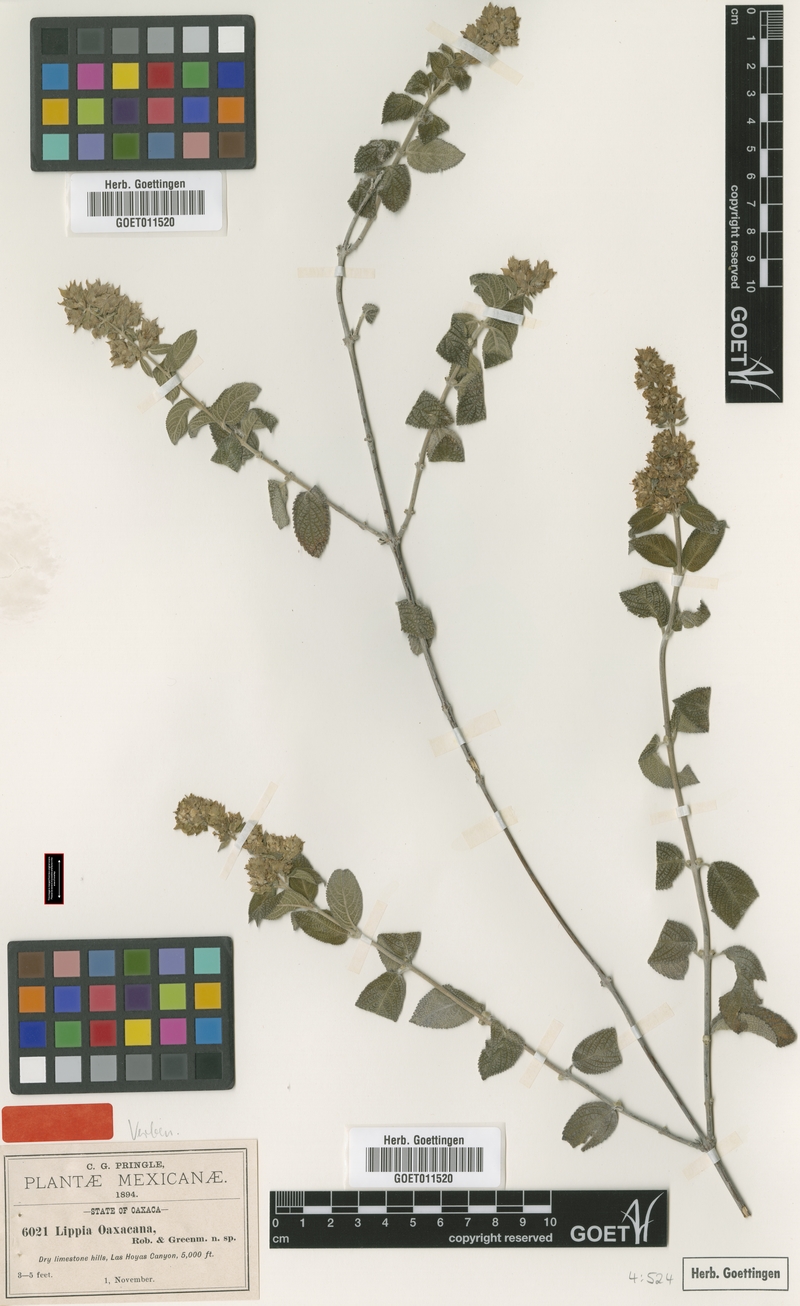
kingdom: Plantae
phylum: Tracheophyta
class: Magnoliopsida
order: Lamiales
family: Verbenaceae
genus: Lippia
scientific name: Lippia oaxacana
